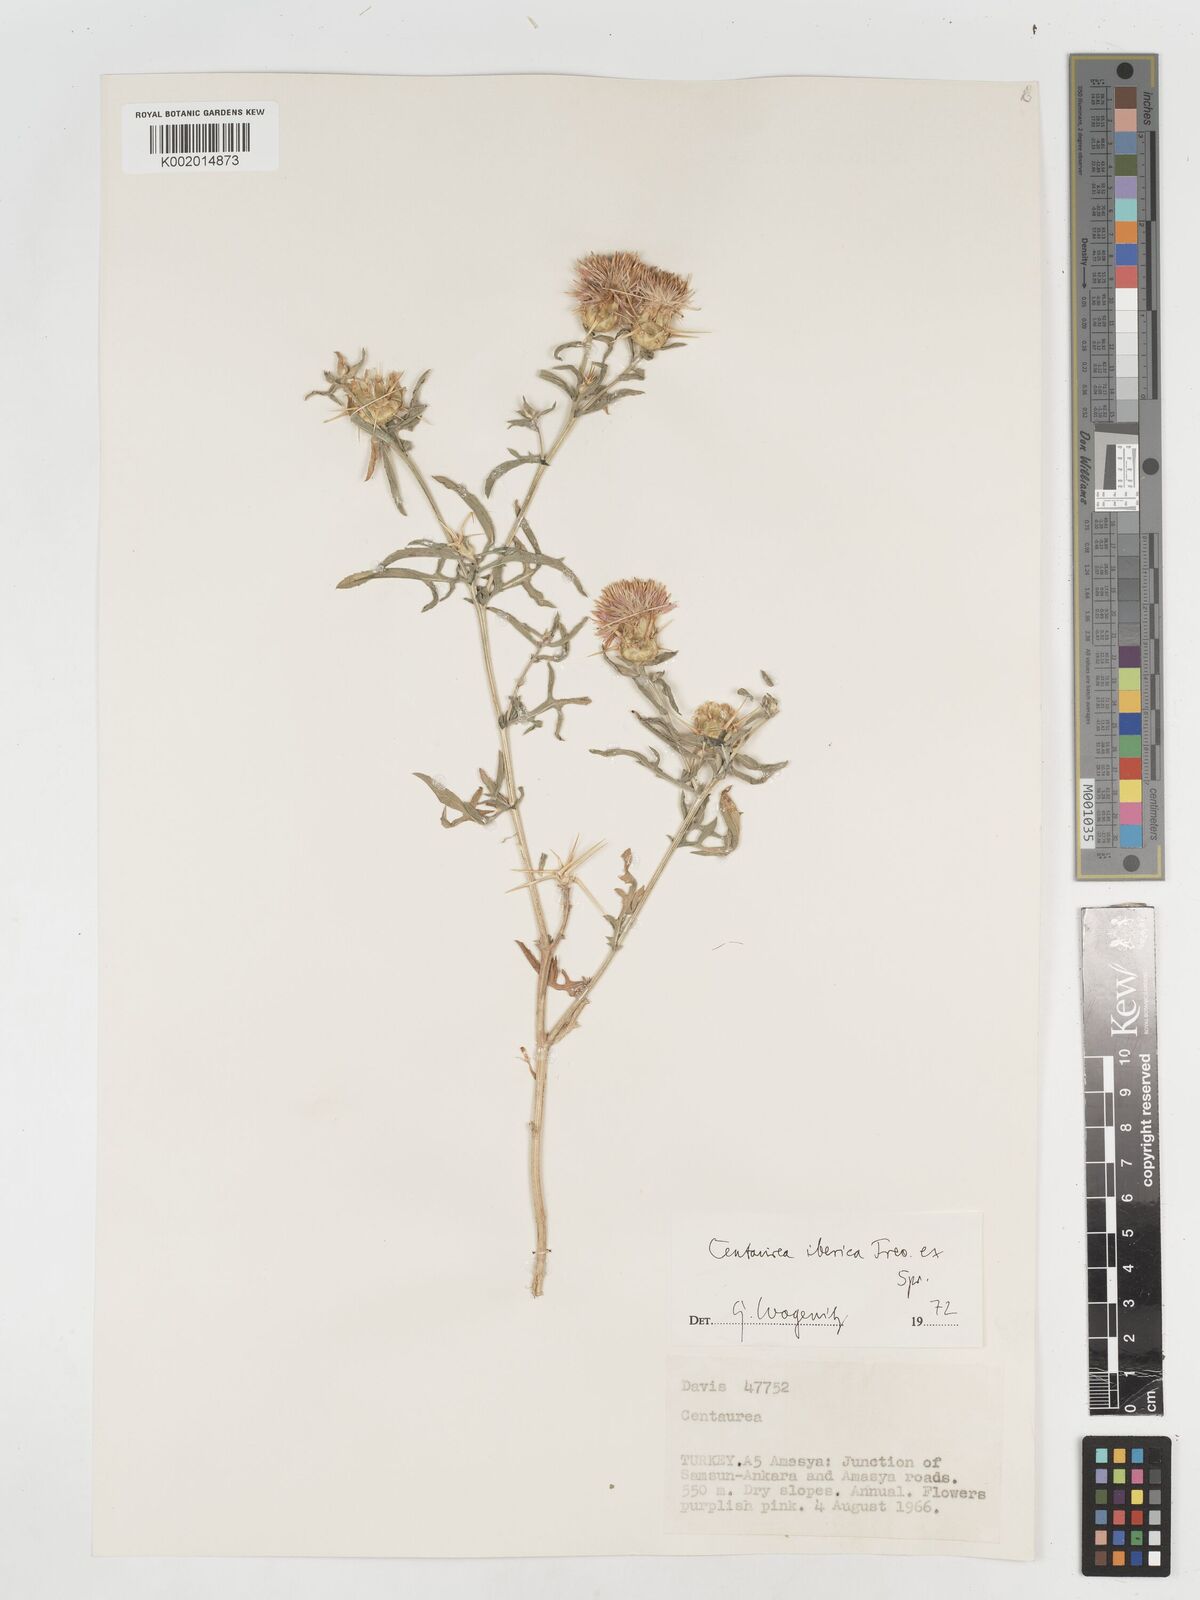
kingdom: Plantae
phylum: Tracheophyta
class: Magnoliopsida
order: Asterales
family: Asteraceae
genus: Centaurea
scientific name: Centaurea iberica
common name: Iberian knapweed
